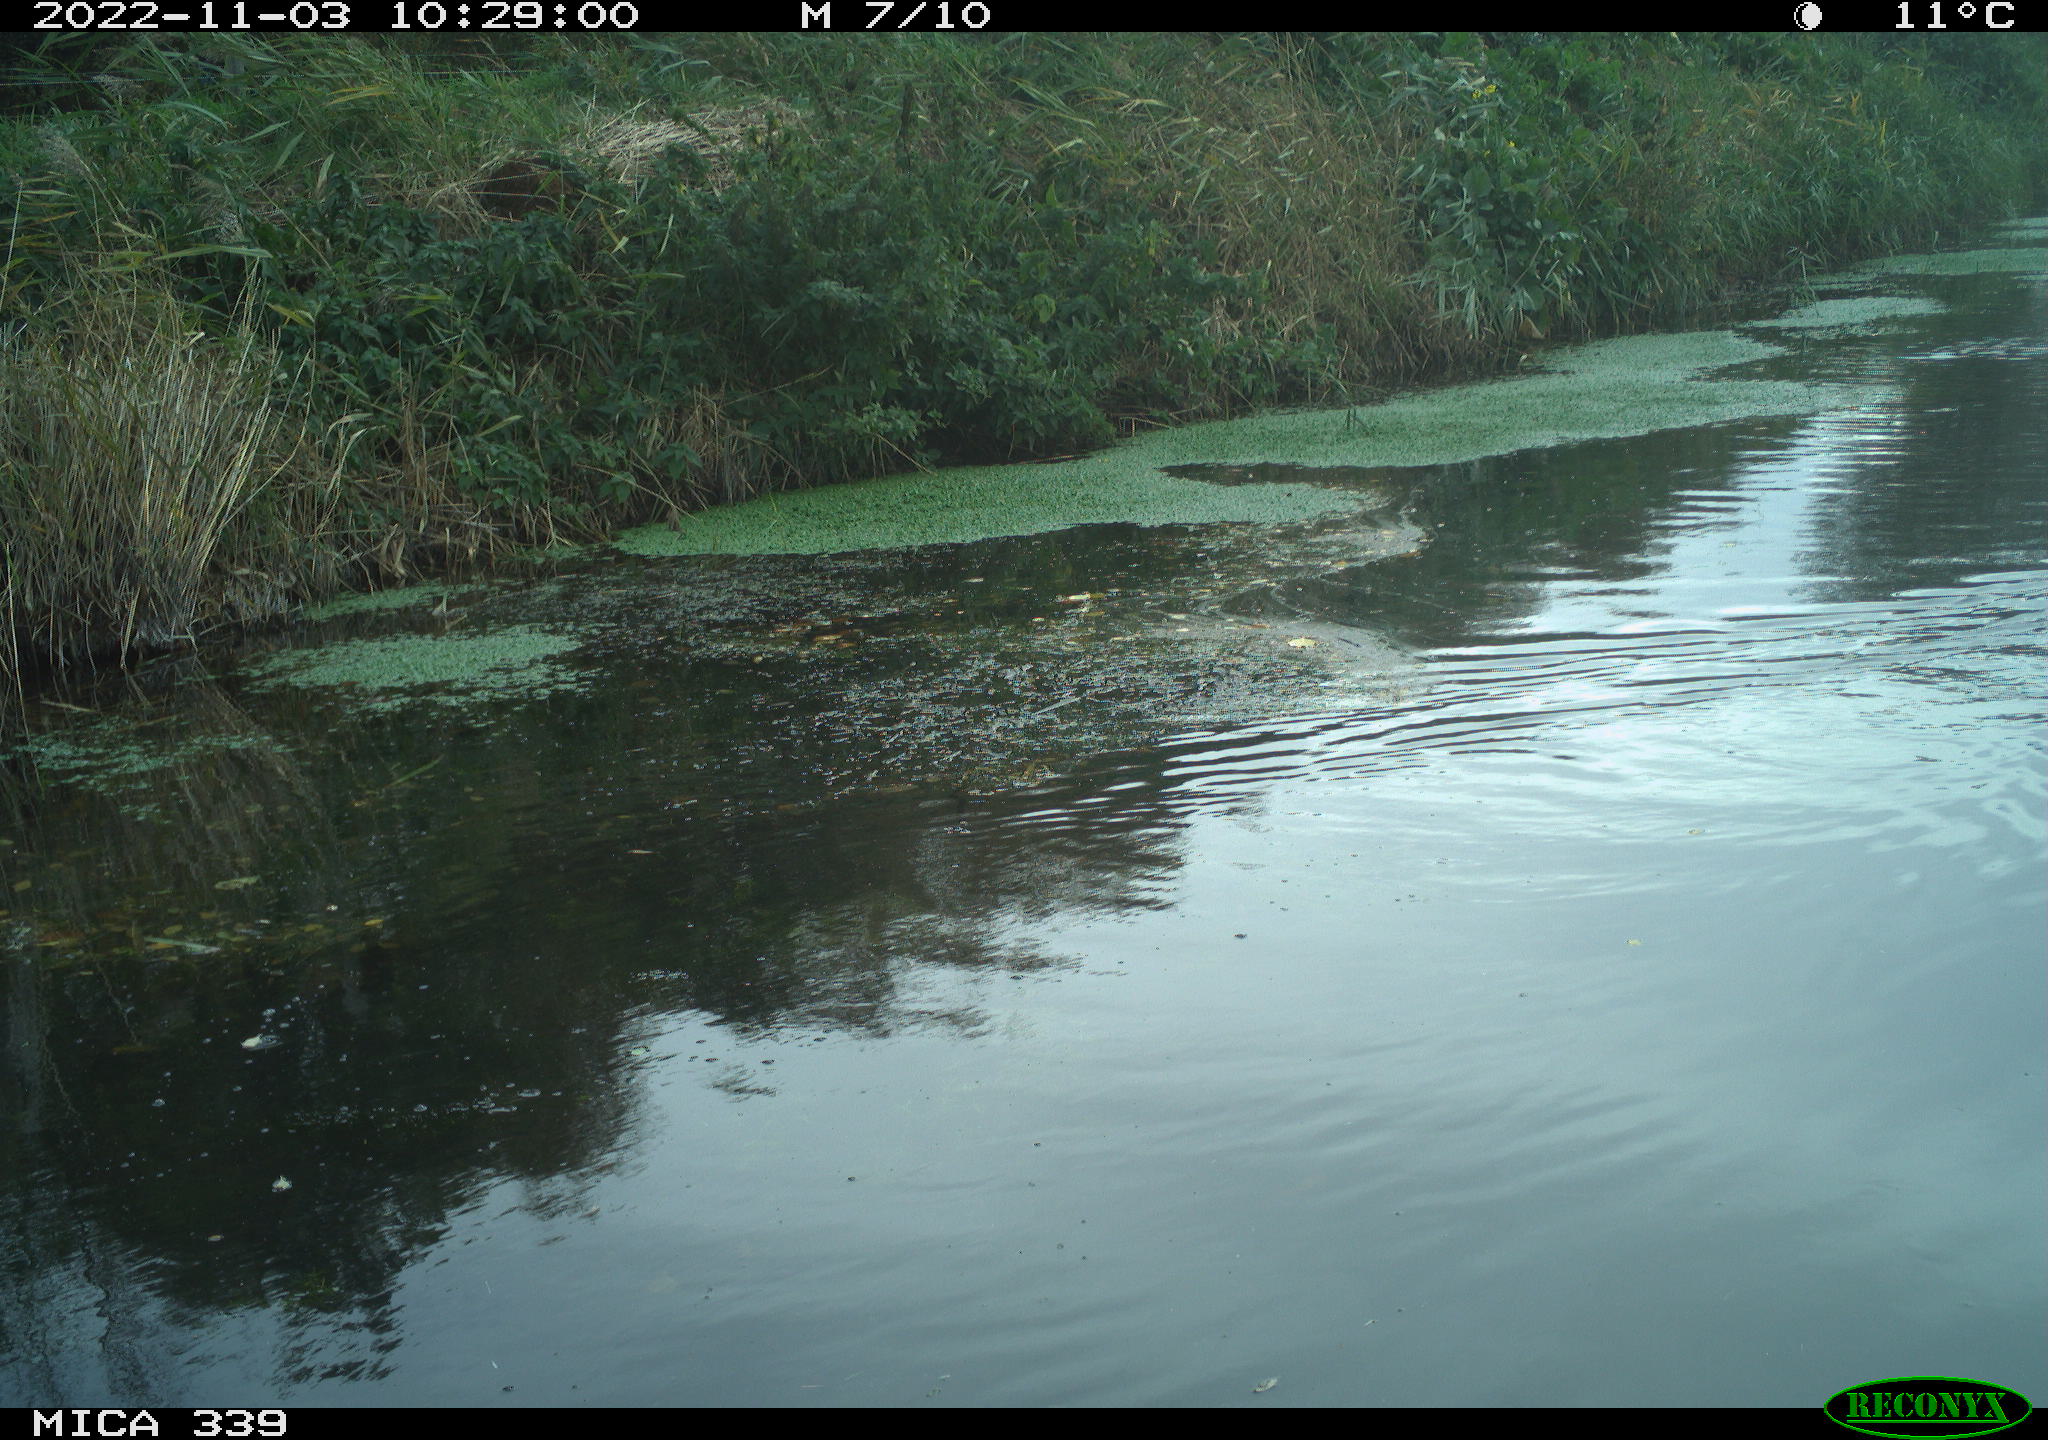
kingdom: Animalia
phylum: Chordata
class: Aves
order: Anseriformes
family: Anatidae
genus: Anas
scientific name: Anas platyrhynchos
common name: Mallard
